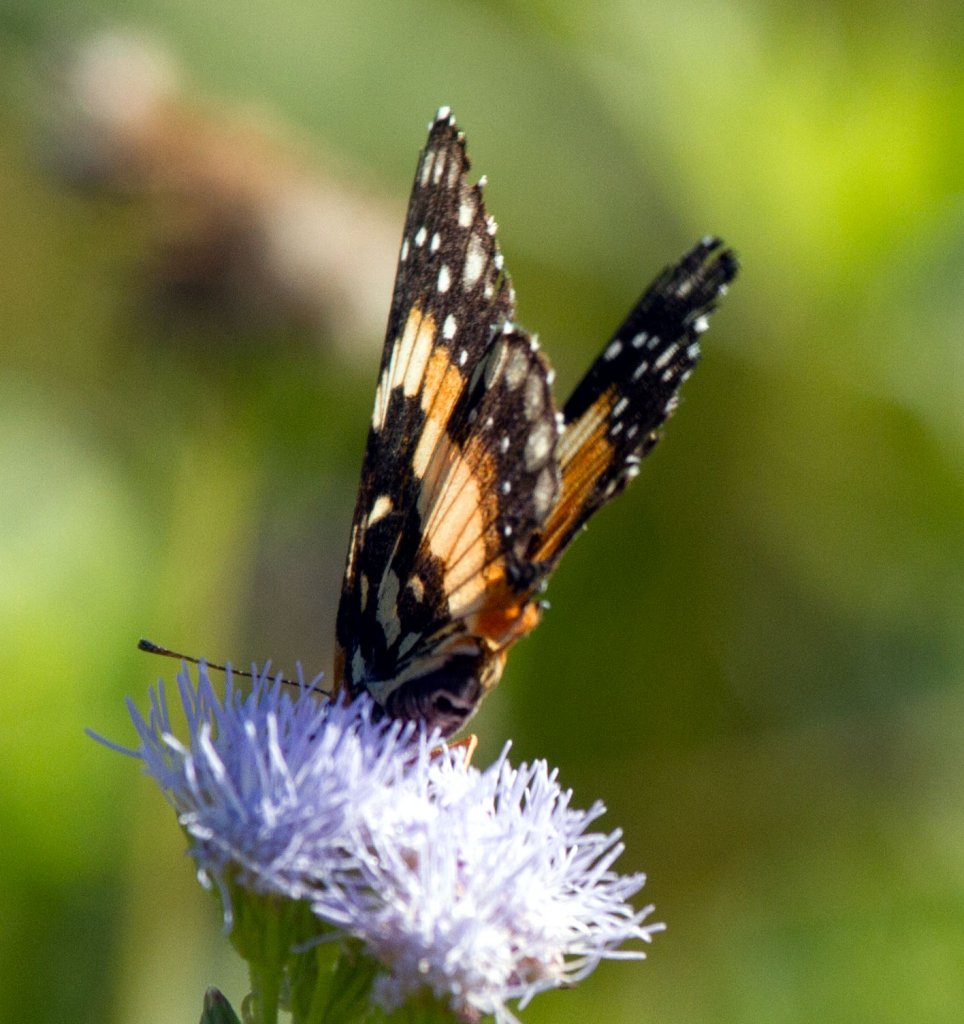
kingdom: Animalia
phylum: Arthropoda
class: Insecta
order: Lepidoptera
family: Nymphalidae
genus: Chlosyne
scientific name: Chlosyne lacinia
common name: Bordered Patch
